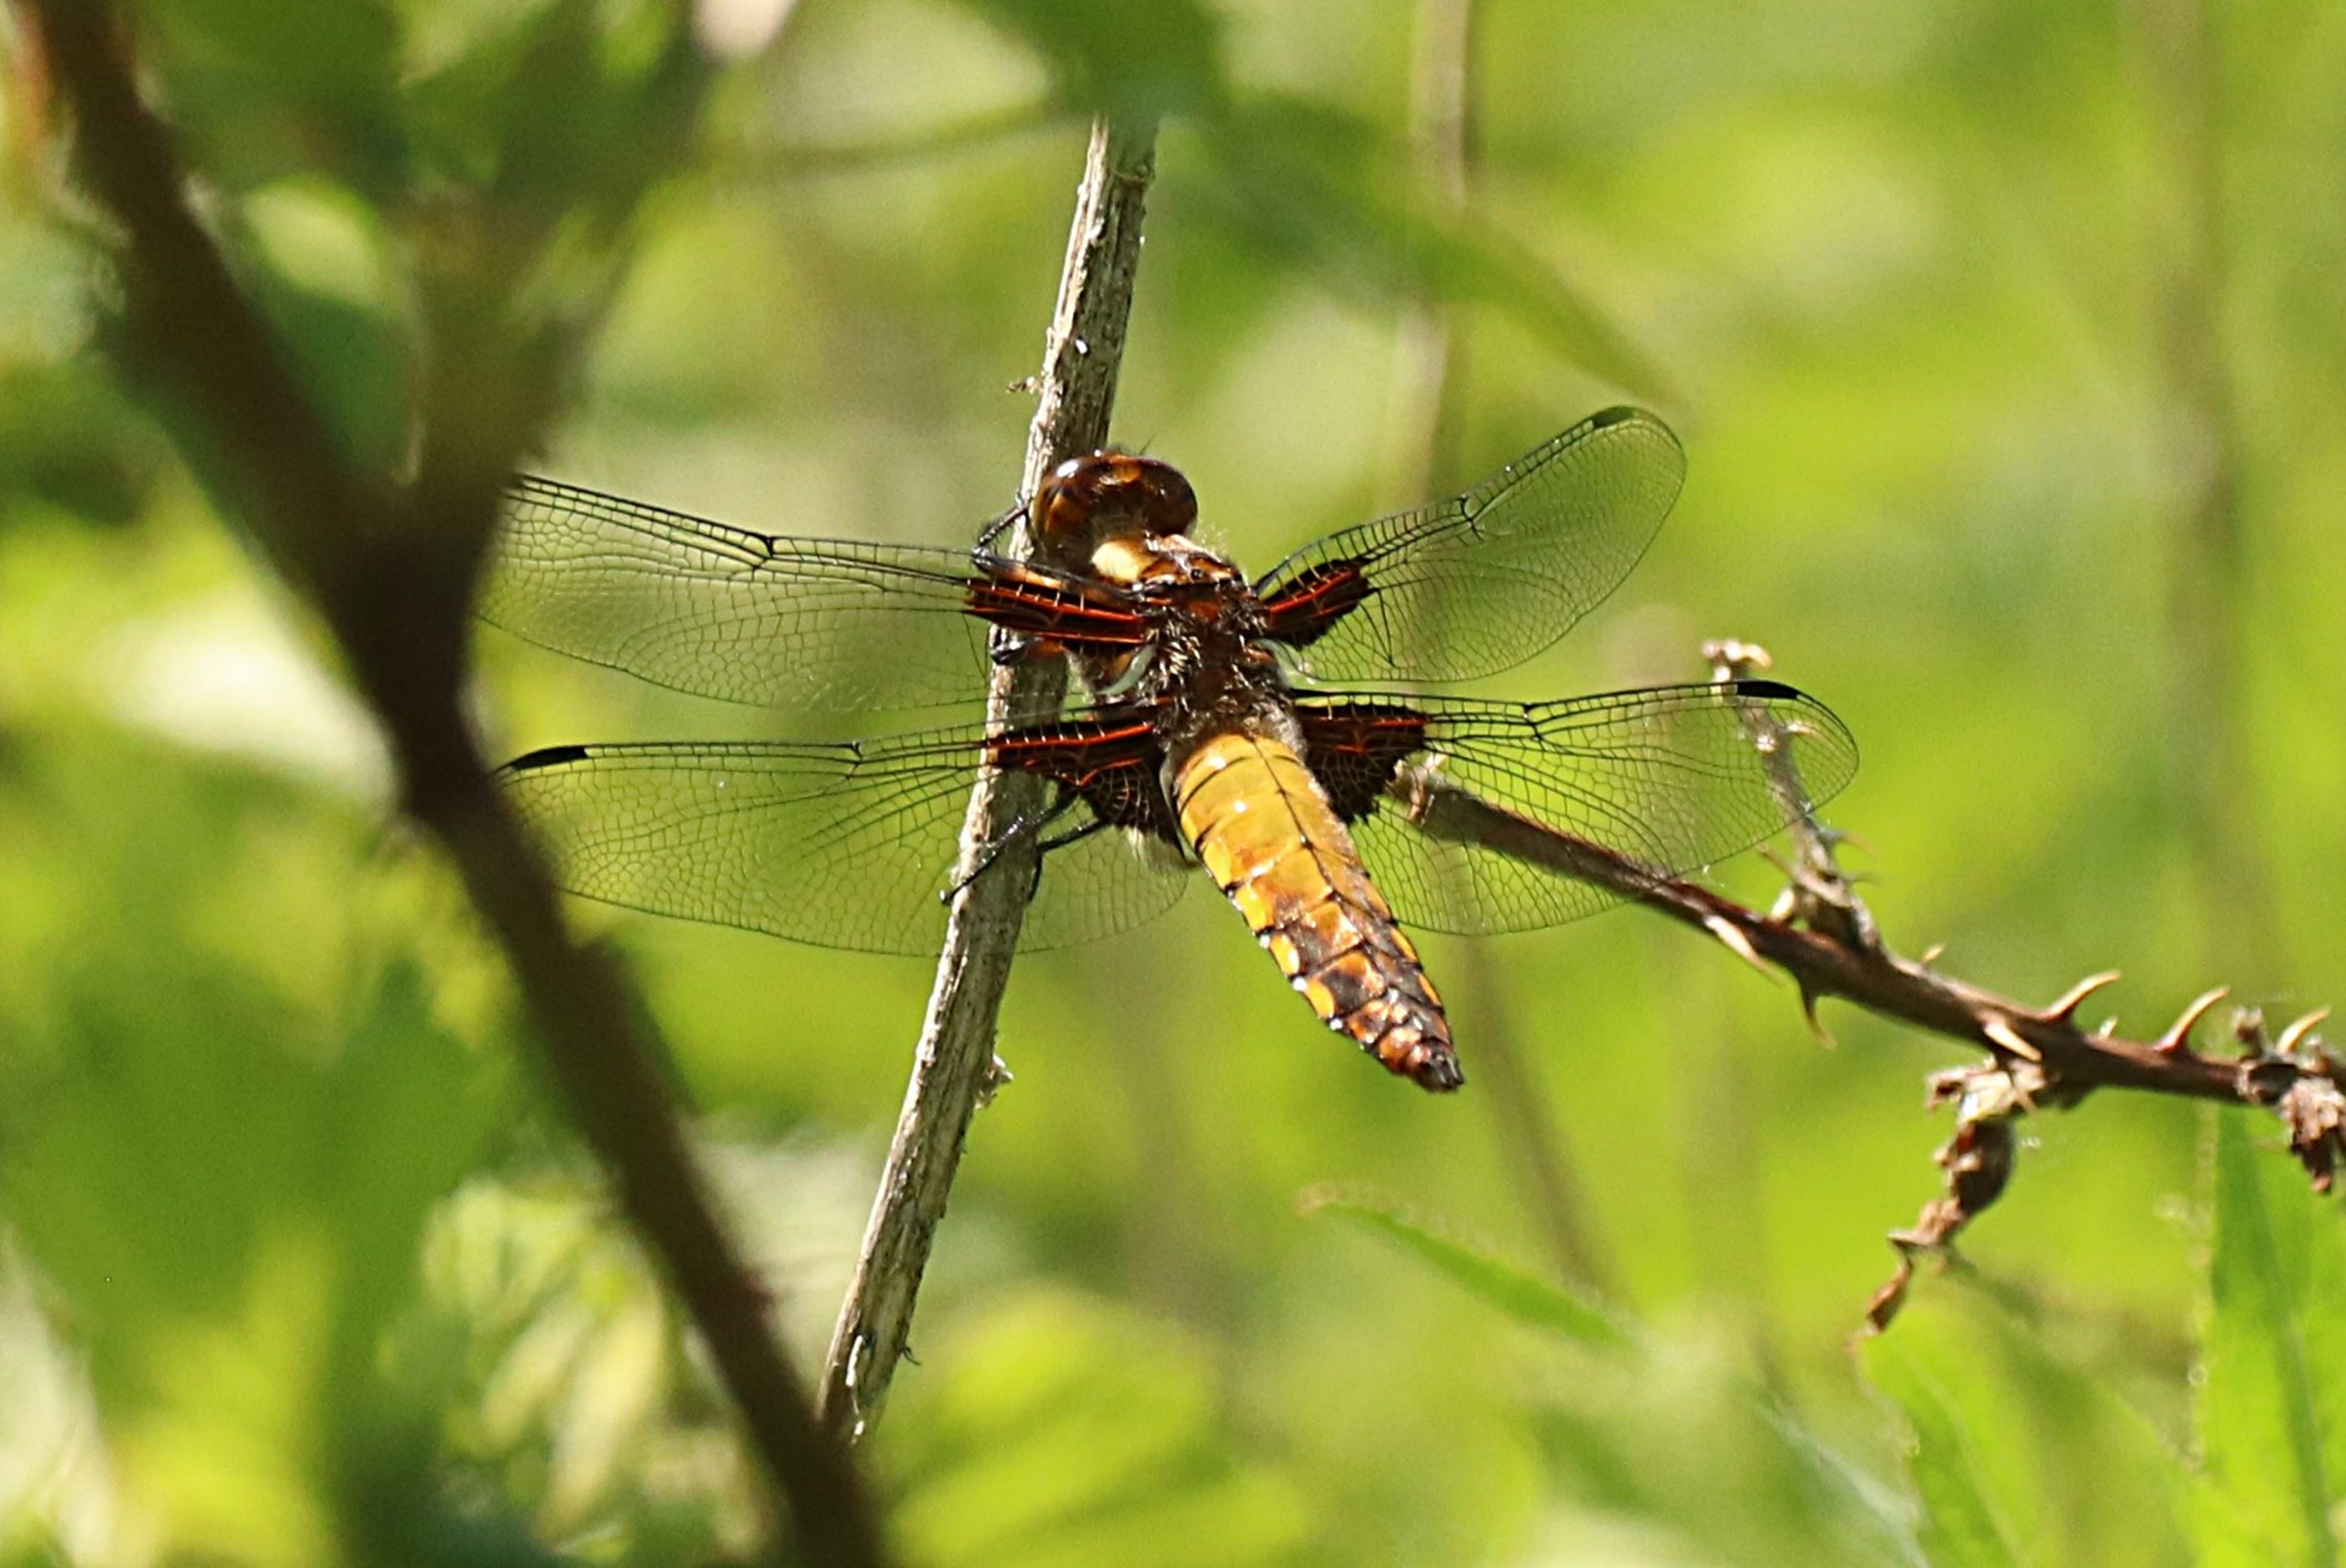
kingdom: Animalia
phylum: Arthropoda
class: Insecta
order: Odonata
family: Libellulidae
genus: Libellula
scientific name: Libellula depressa
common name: Blå libel
